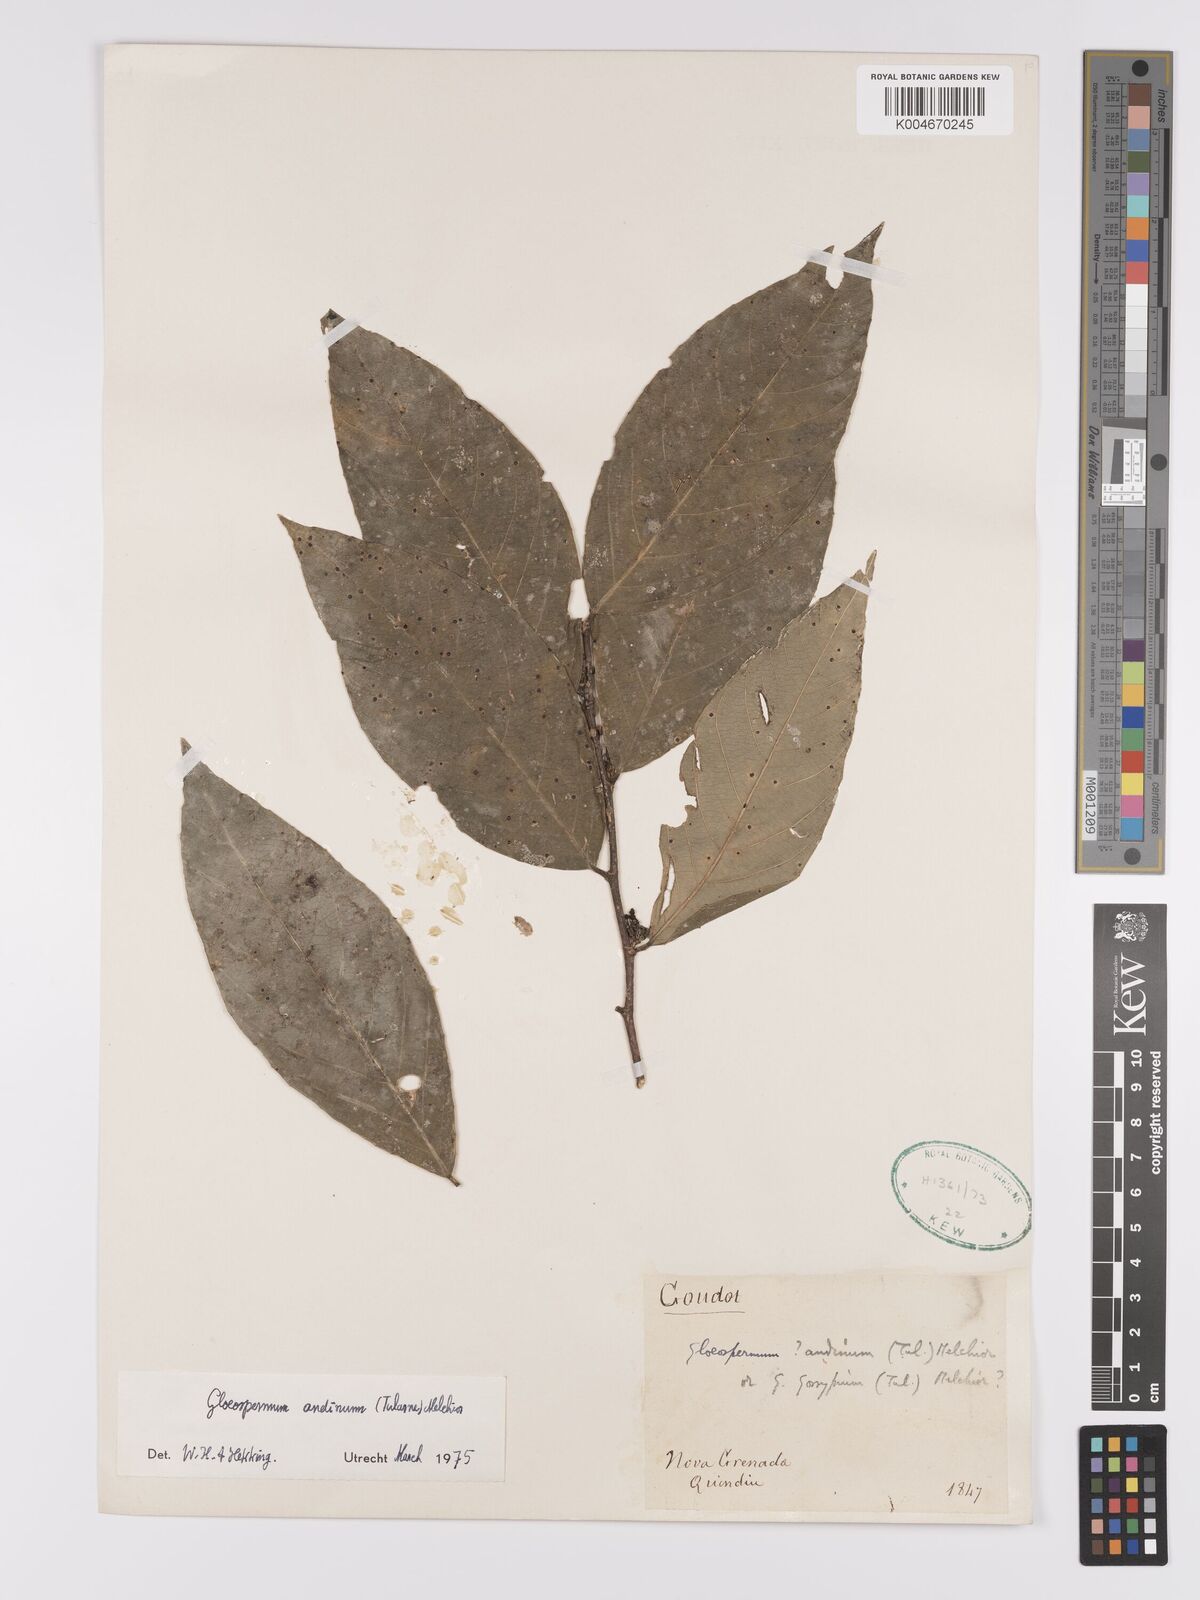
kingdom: Plantae
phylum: Tracheophyta
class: Magnoliopsida
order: Malpighiales
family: Violaceae
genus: Gloeospermum
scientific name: Gloeospermum andinum
